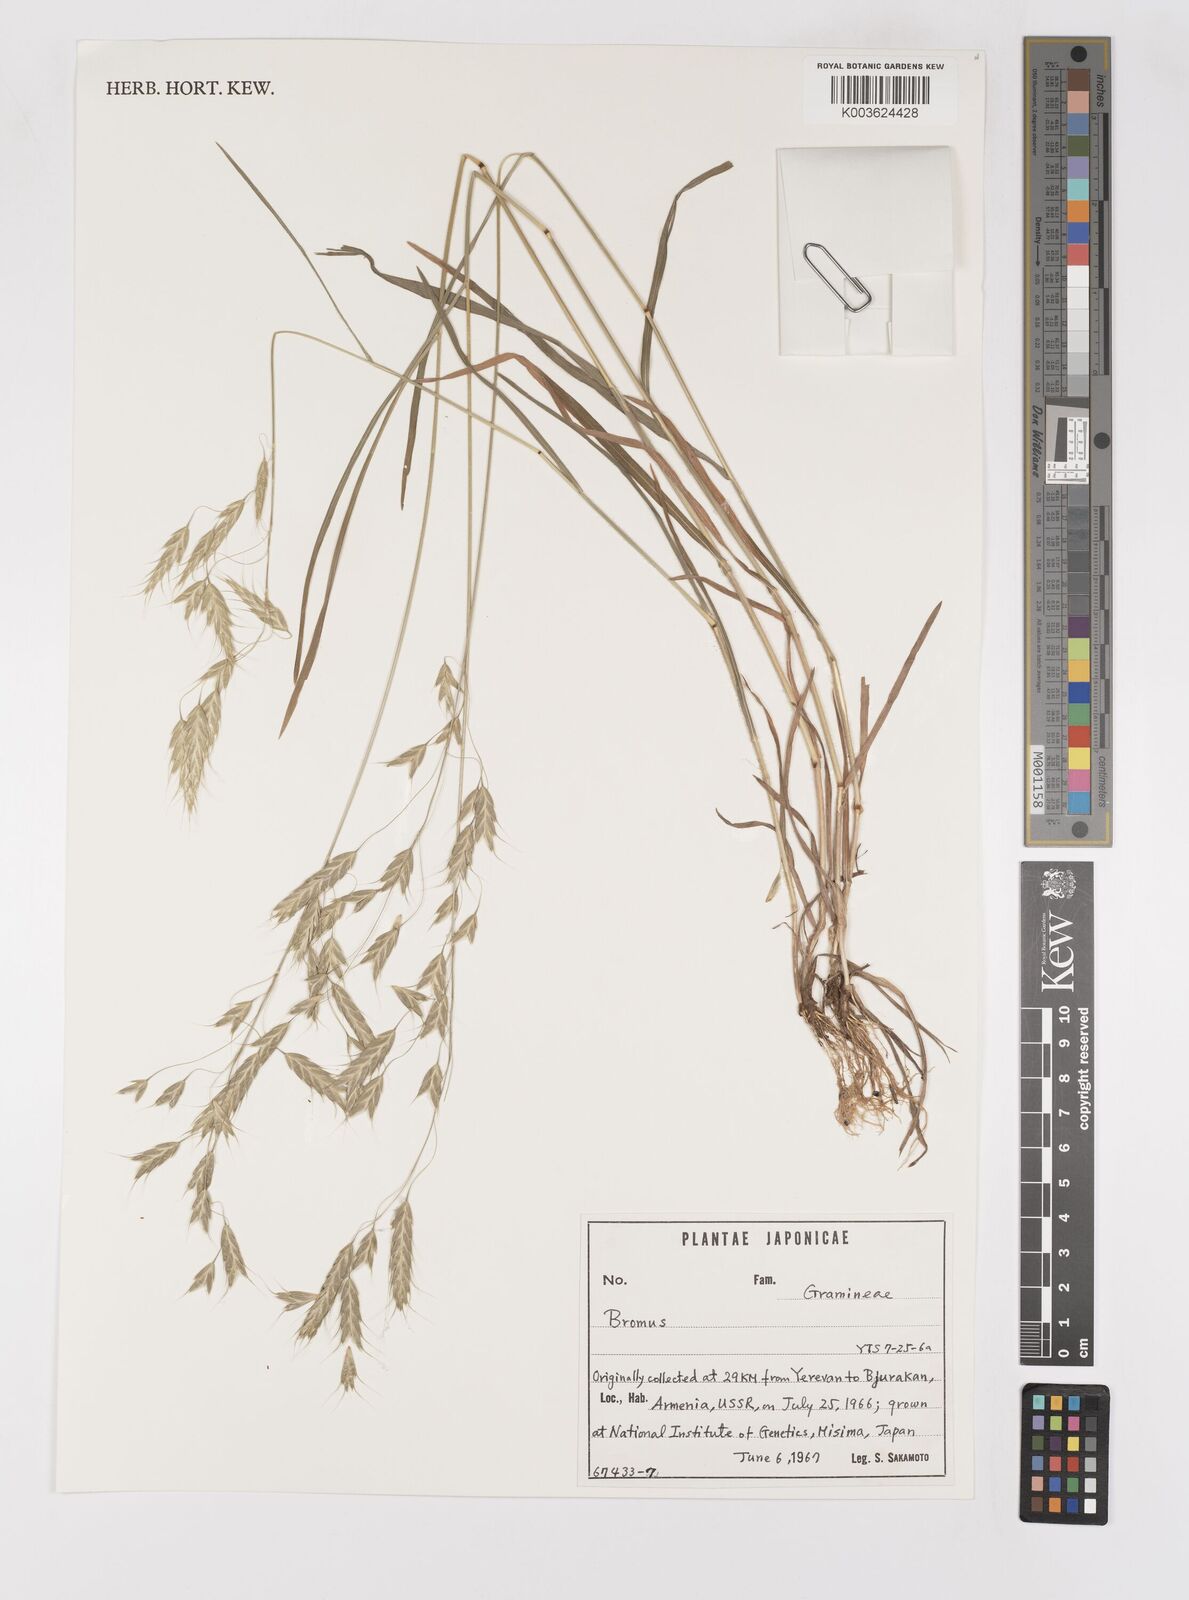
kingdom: Plantae
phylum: Tracheophyta
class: Liliopsida
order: Poales
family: Poaceae
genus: Bromus
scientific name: Bromus
